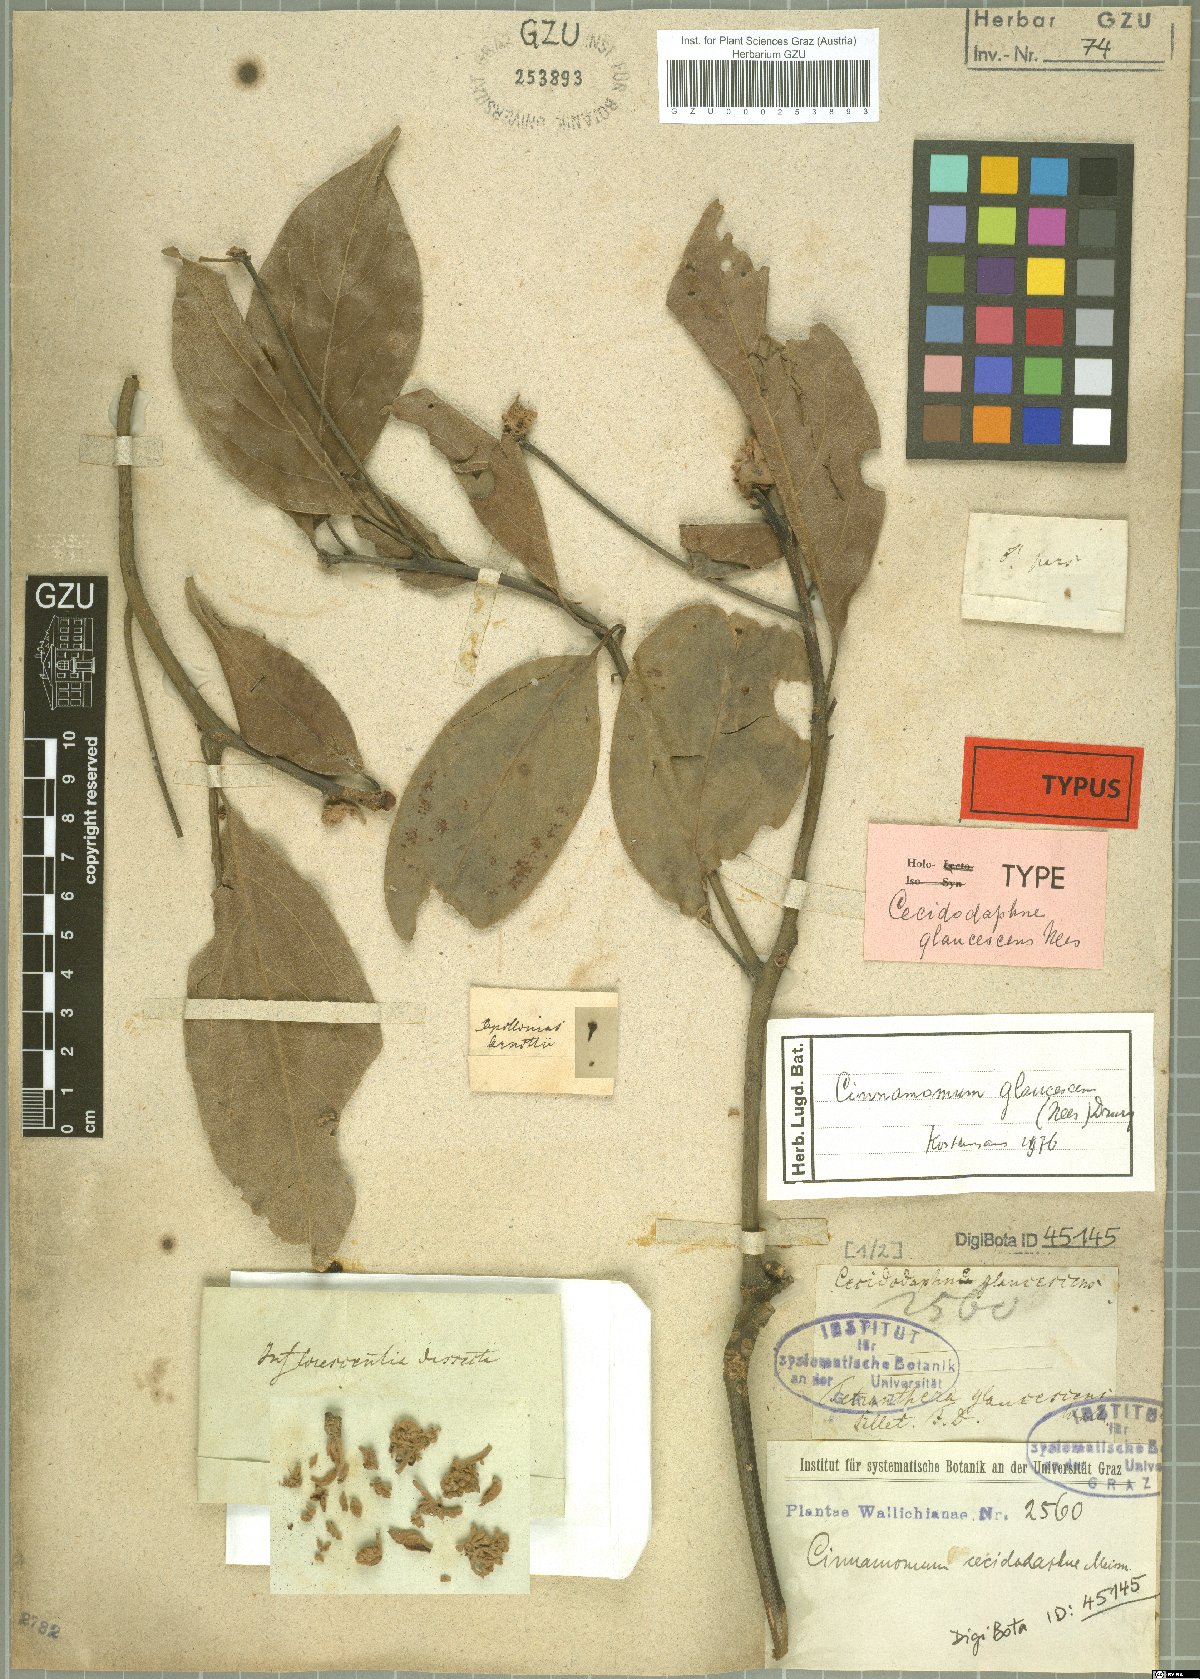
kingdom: Plantae
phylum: Tracheophyta
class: Magnoliopsida
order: Laurales
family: Lauraceae
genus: Cinnamomum
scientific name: Cinnamomum glaucescens
